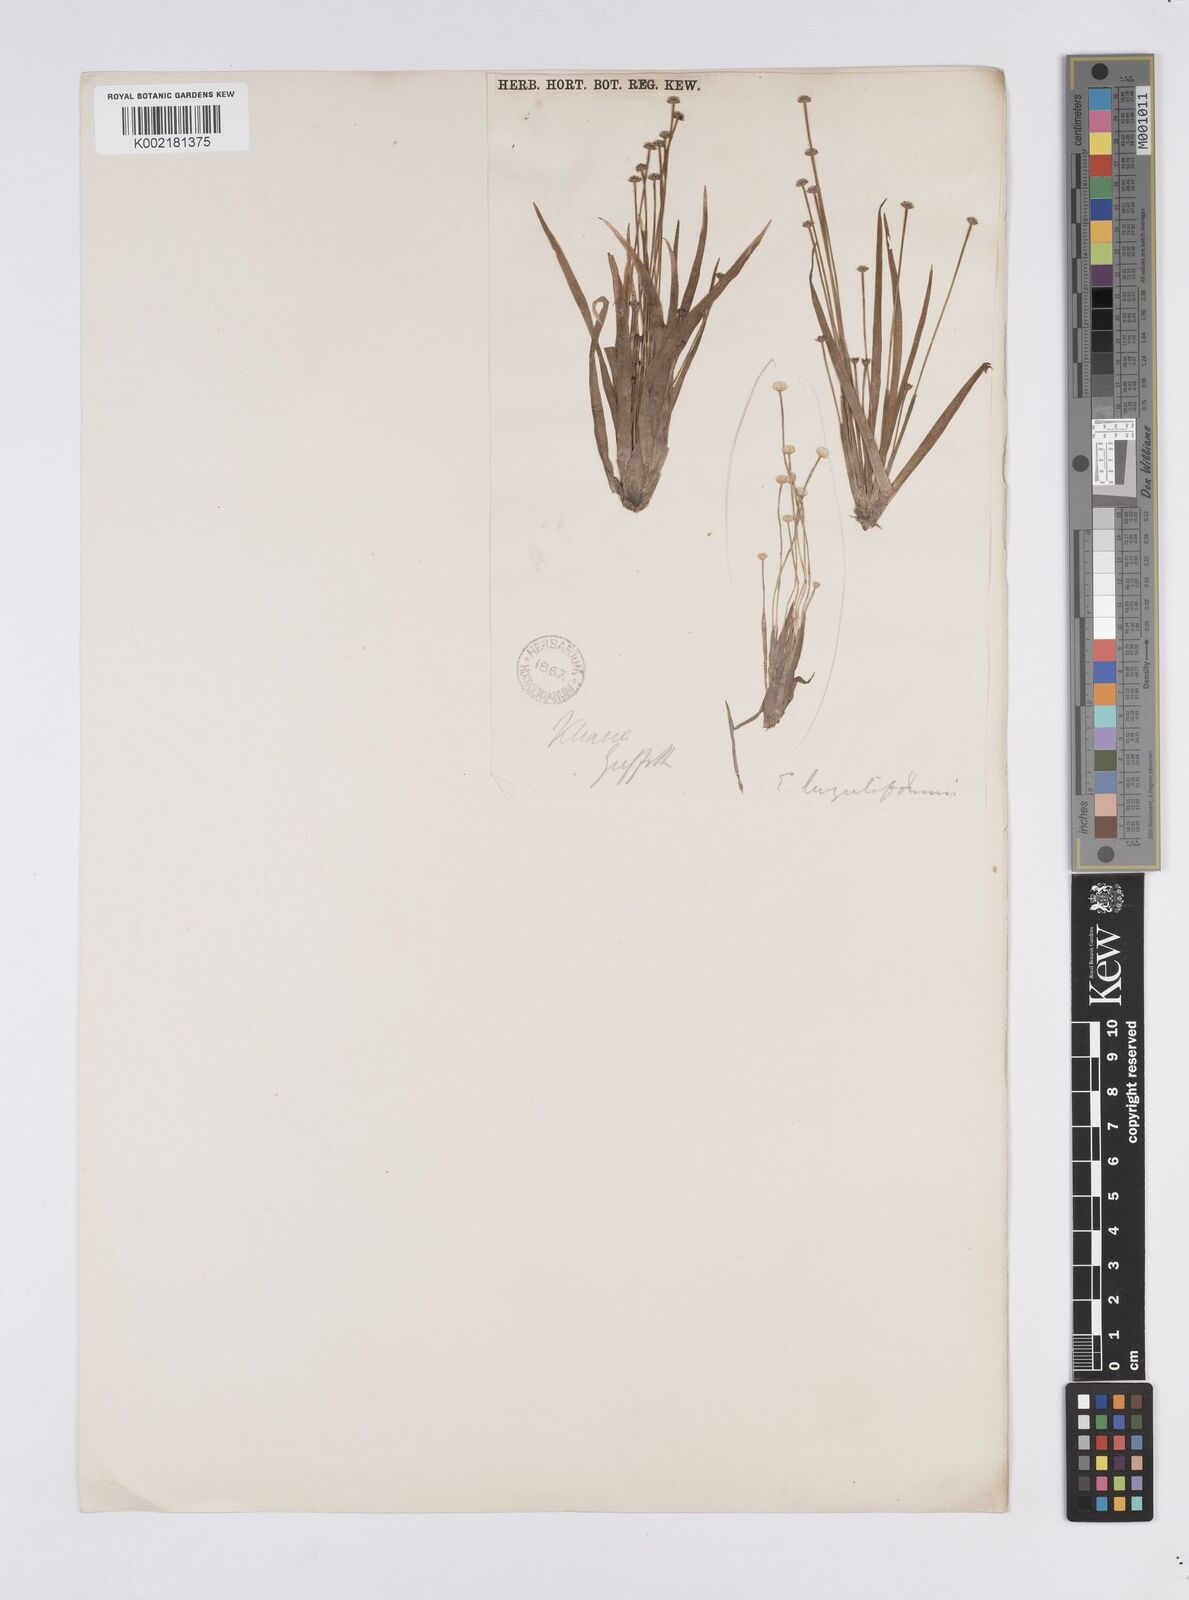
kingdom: Plantae
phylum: Tracheophyta
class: Liliopsida
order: Poales
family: Eriocaulaceae
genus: Eriocaulon
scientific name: Eriocaulon nepalense
